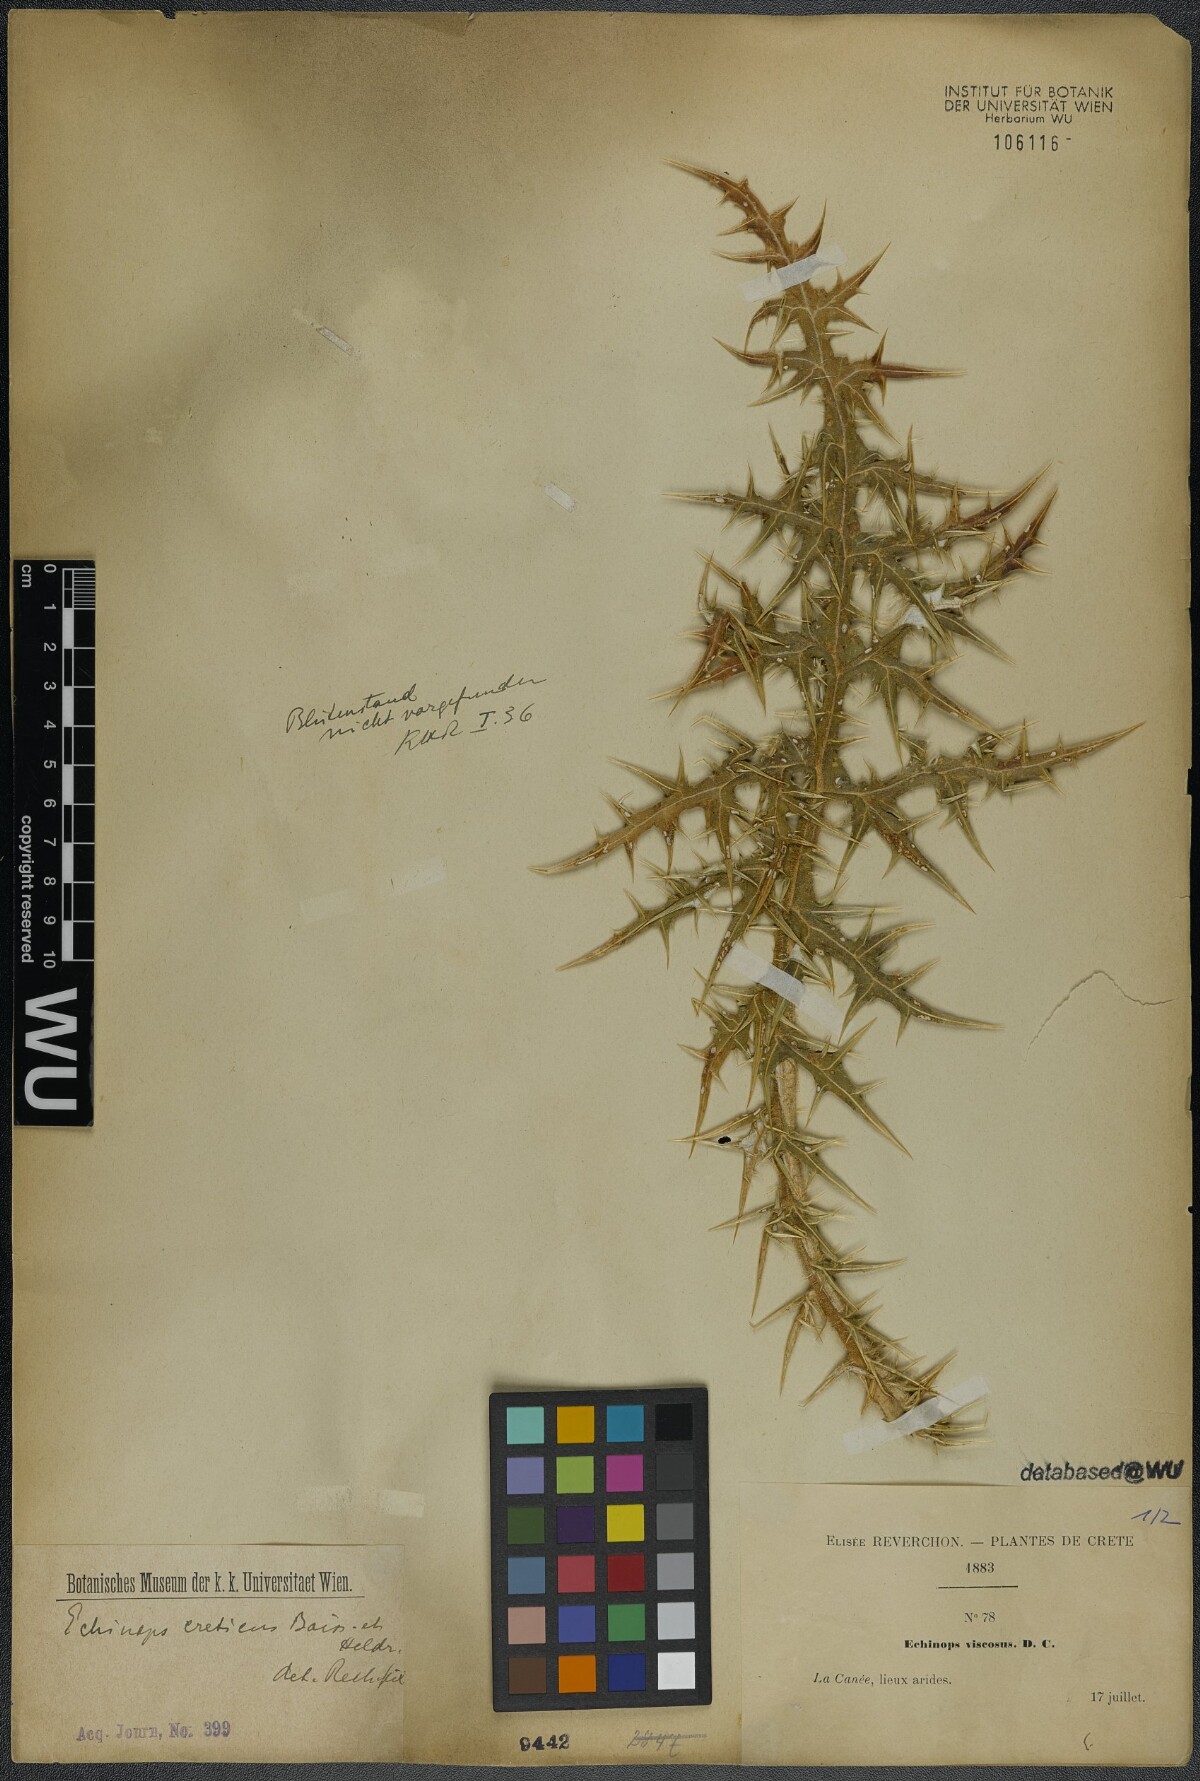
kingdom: Plantae
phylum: Tracheophyta
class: Magnoliopsida
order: Asterales
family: Asteraceae
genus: Echinops
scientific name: Echinops spinosissimus
